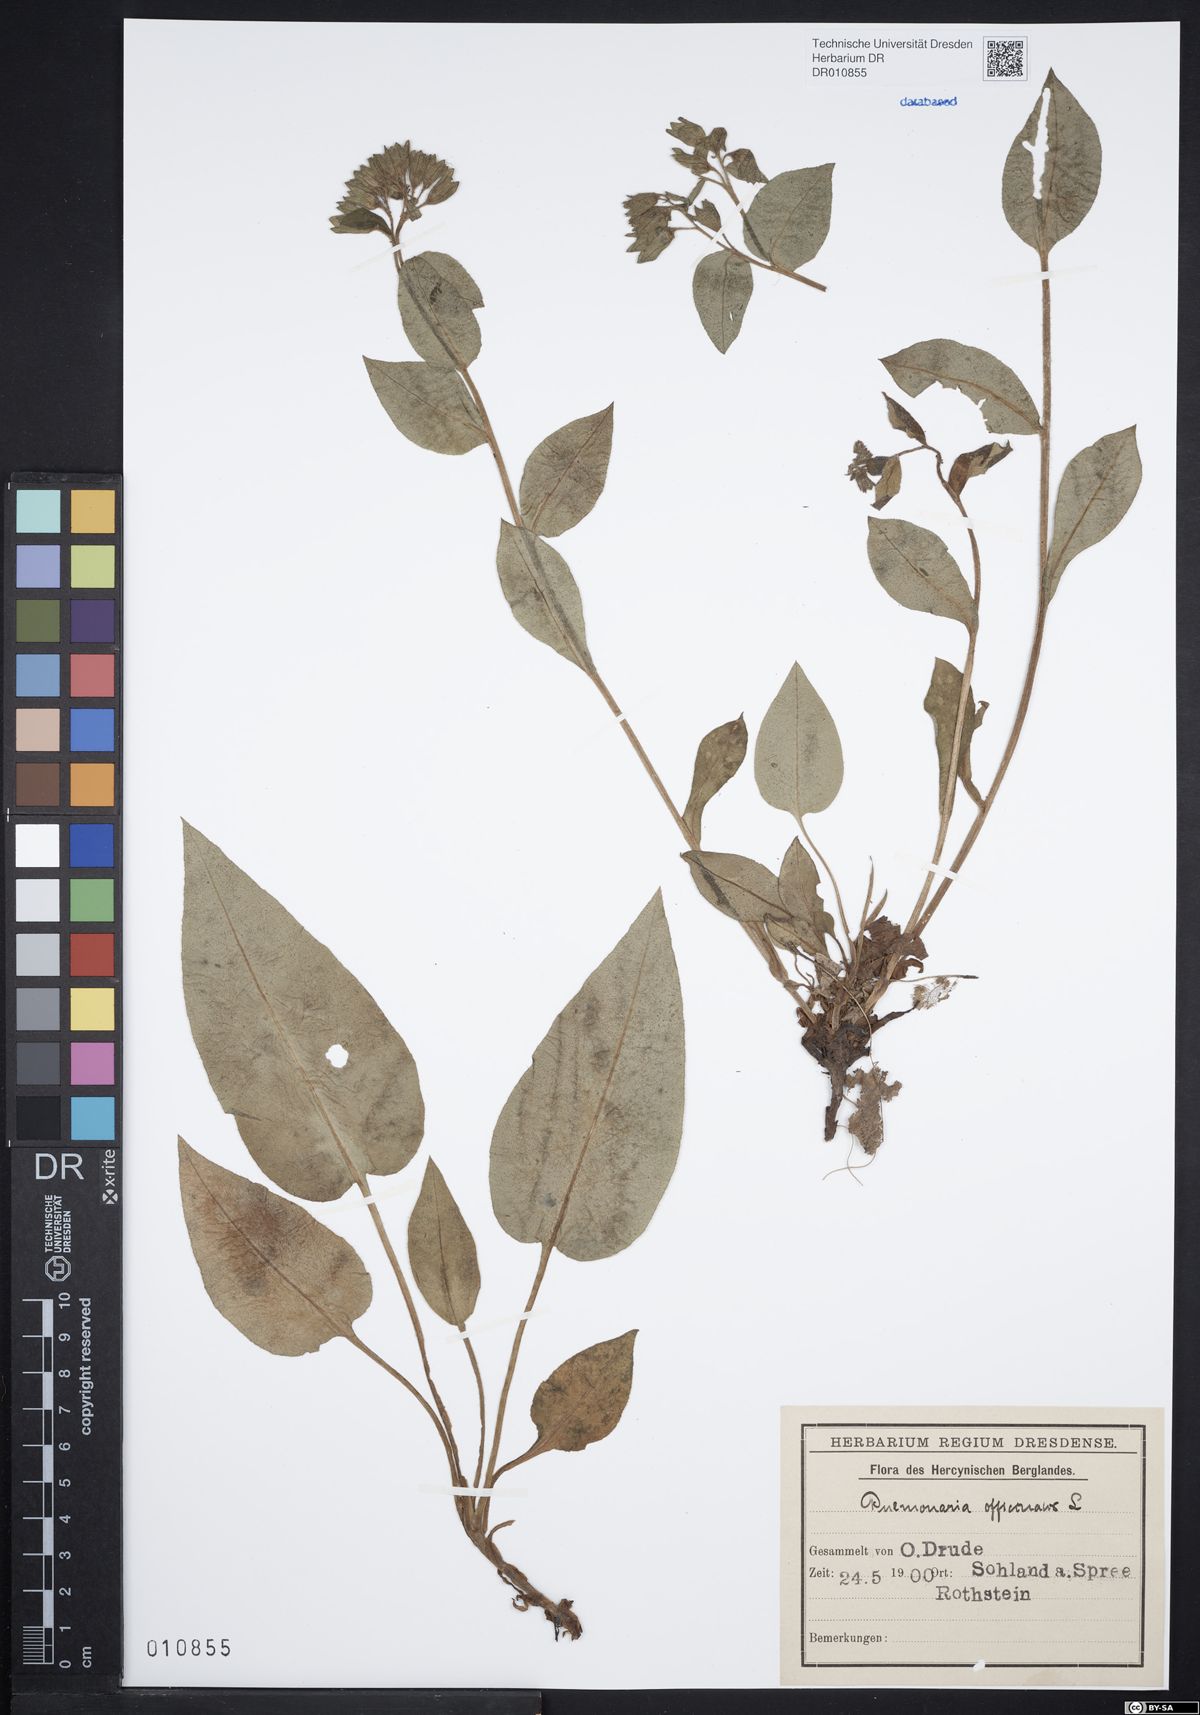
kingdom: Plantae
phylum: Tracheophyta
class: Magnoliopsida
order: Boraginales
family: Boraginaceae
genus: Pulmonaria
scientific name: Pulmonaria obscura
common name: Suffolk lungwort
